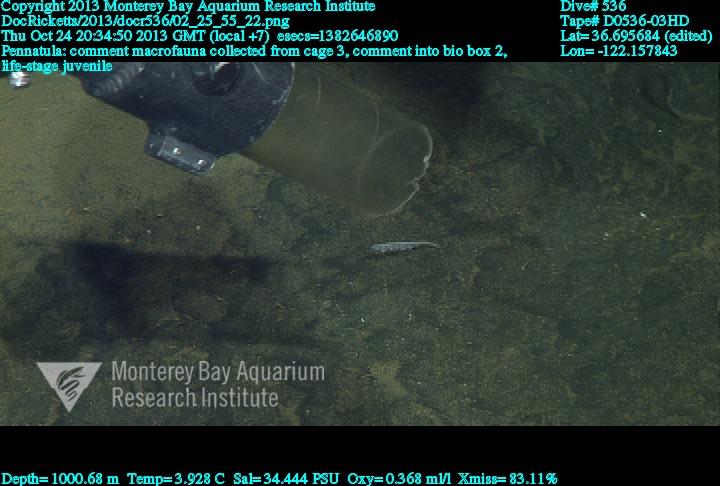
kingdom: Animalia
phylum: Cnidaria
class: Anthozoa
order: Scleralcyonacea
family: Pennatulidae
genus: Pennatula
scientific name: Pennatula
